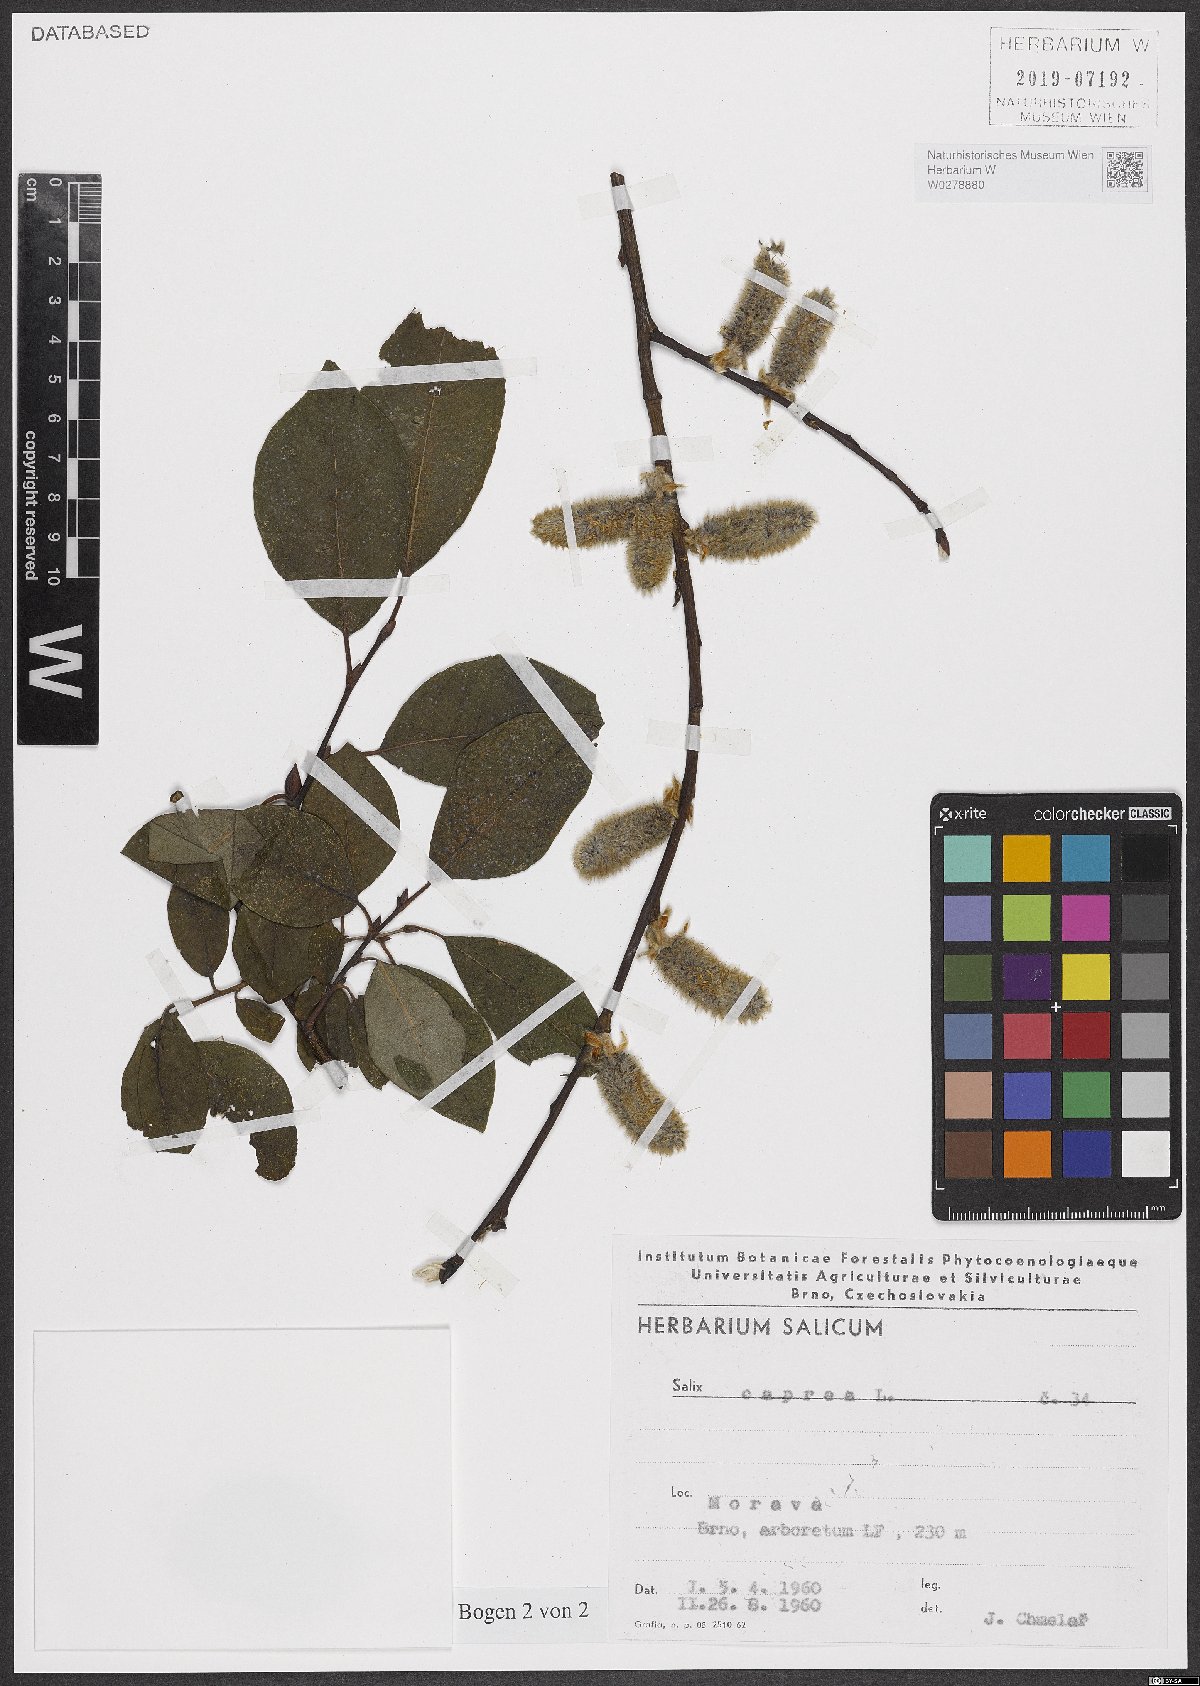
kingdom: Plantae
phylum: Tracheophyta
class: Magnoliopsida
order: Malpighiales
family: Salicaceae
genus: Salix
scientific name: Salix caprea
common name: Goat willow
